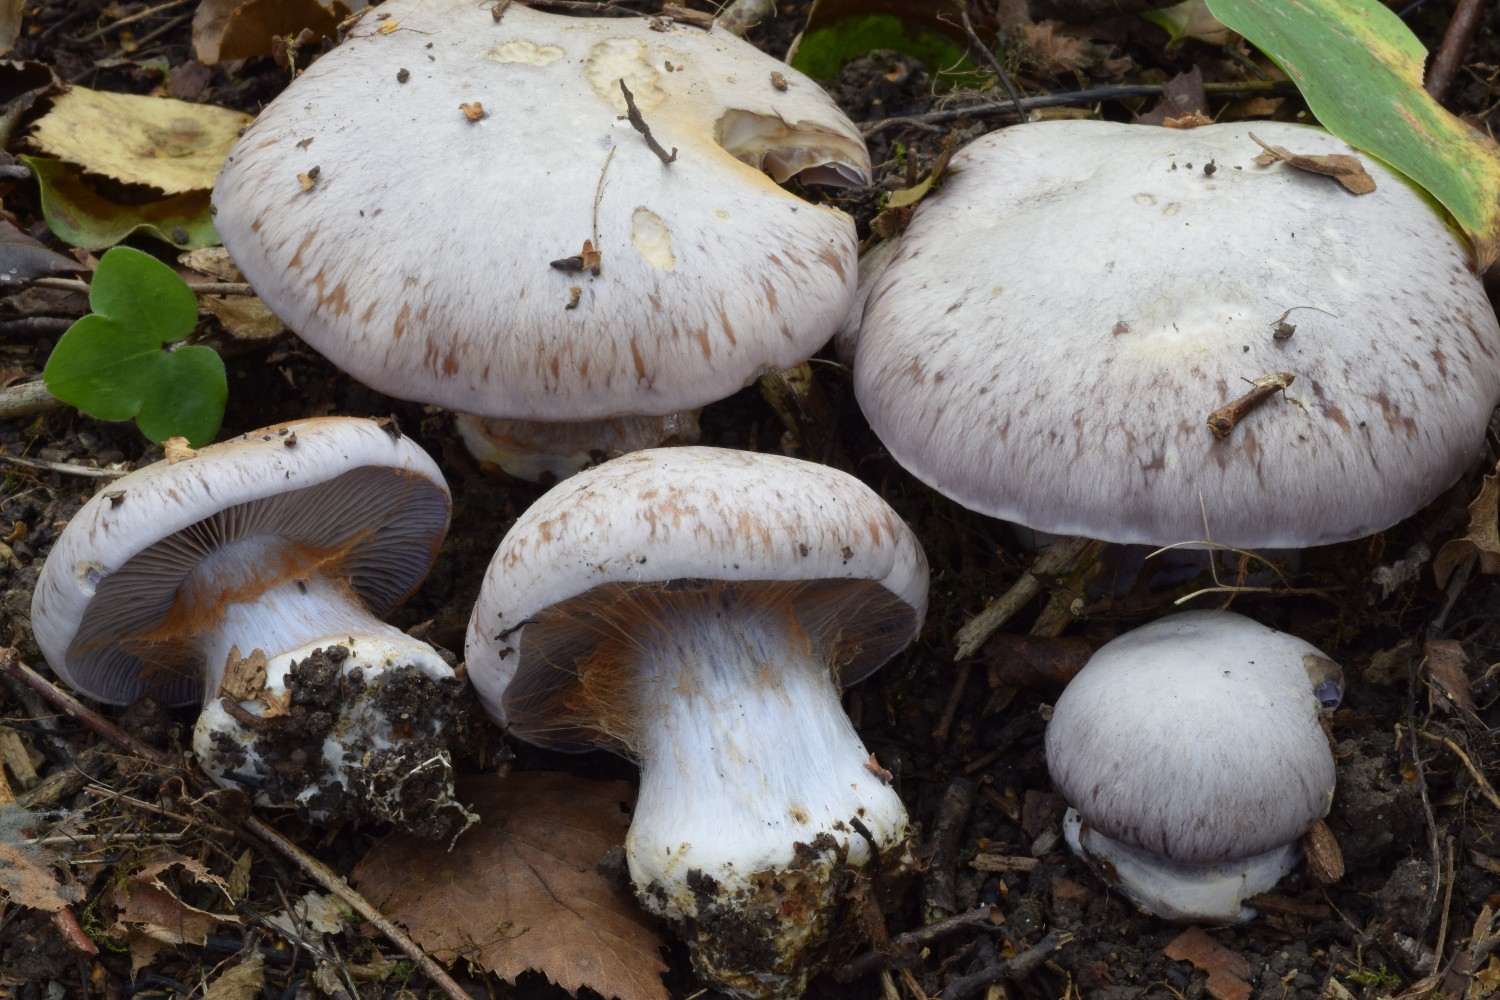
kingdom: Fungi
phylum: Basidiomycota
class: Agaricomycetes
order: Agaricales
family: Cortinariaceae
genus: Phlegmacium
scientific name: Phlegmacium perpallens
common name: gråbladet slørhat
